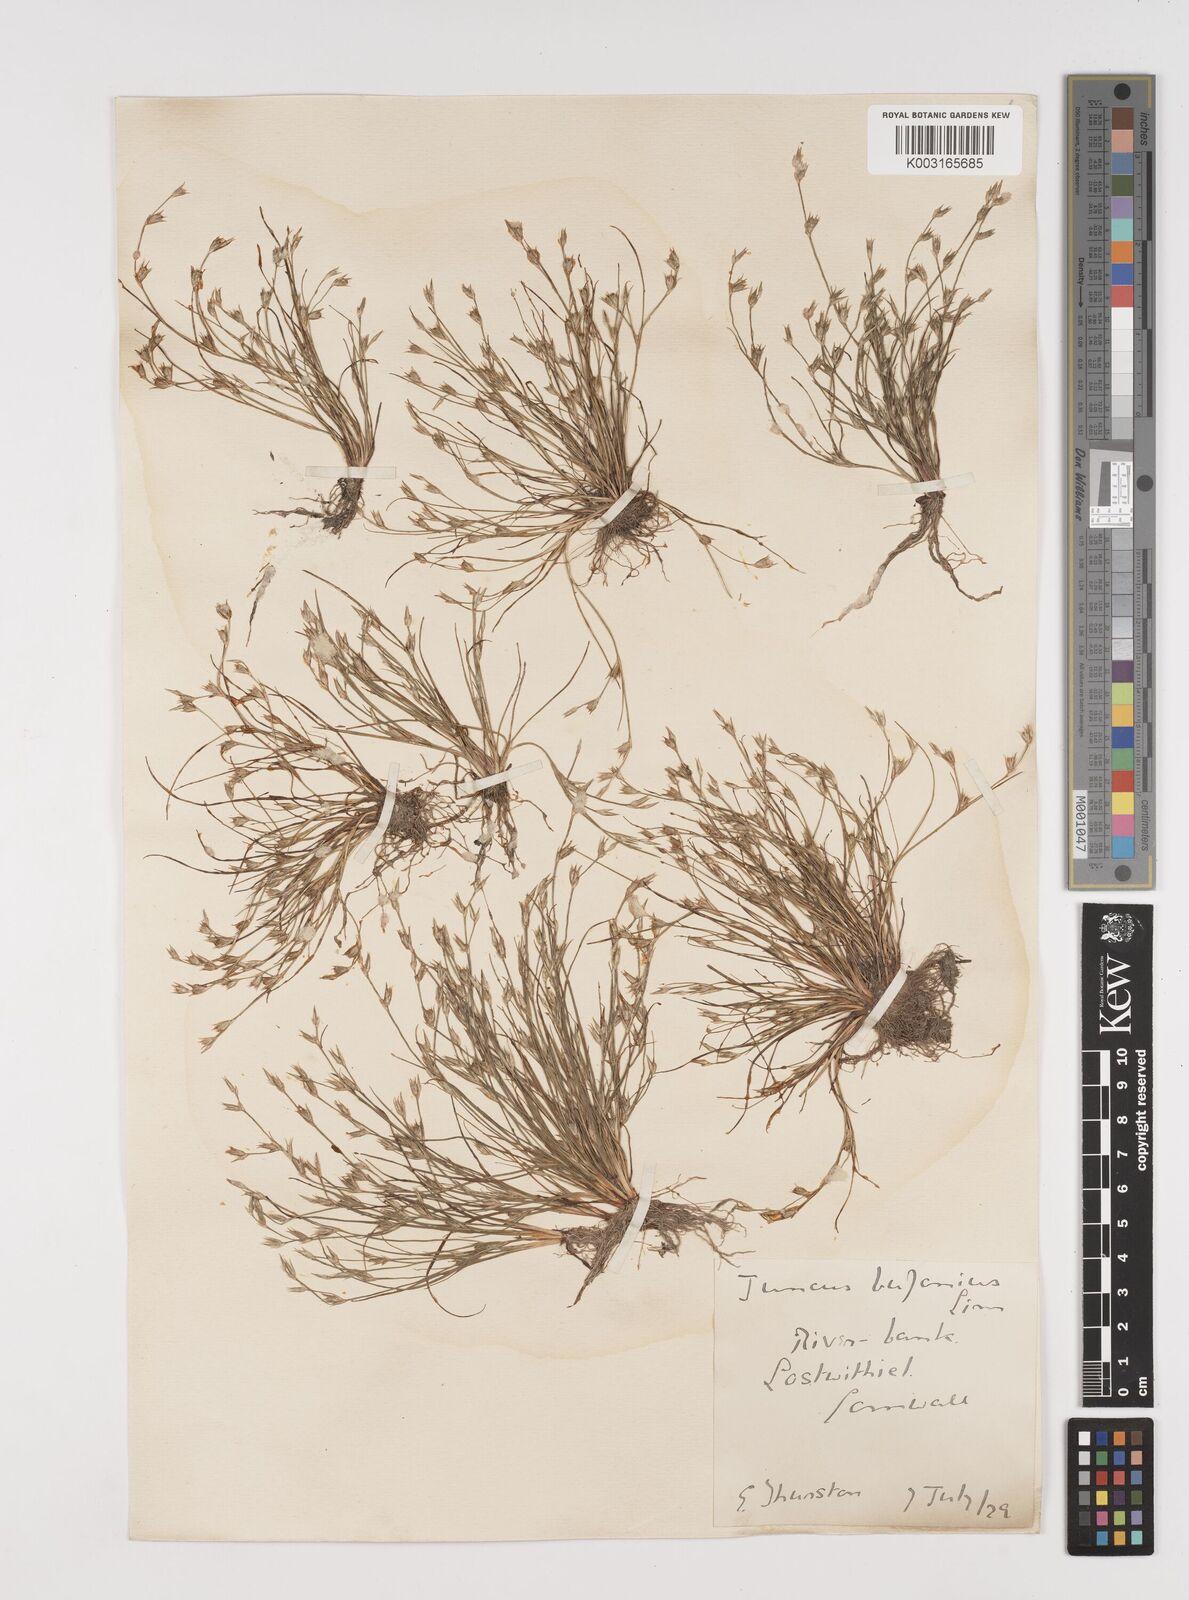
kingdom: Plantae
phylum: Tracheophyta
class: Liliopsida
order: Poales
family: Juncaceae
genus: Juncus
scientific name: Juncus bufonius
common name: Toad rush
